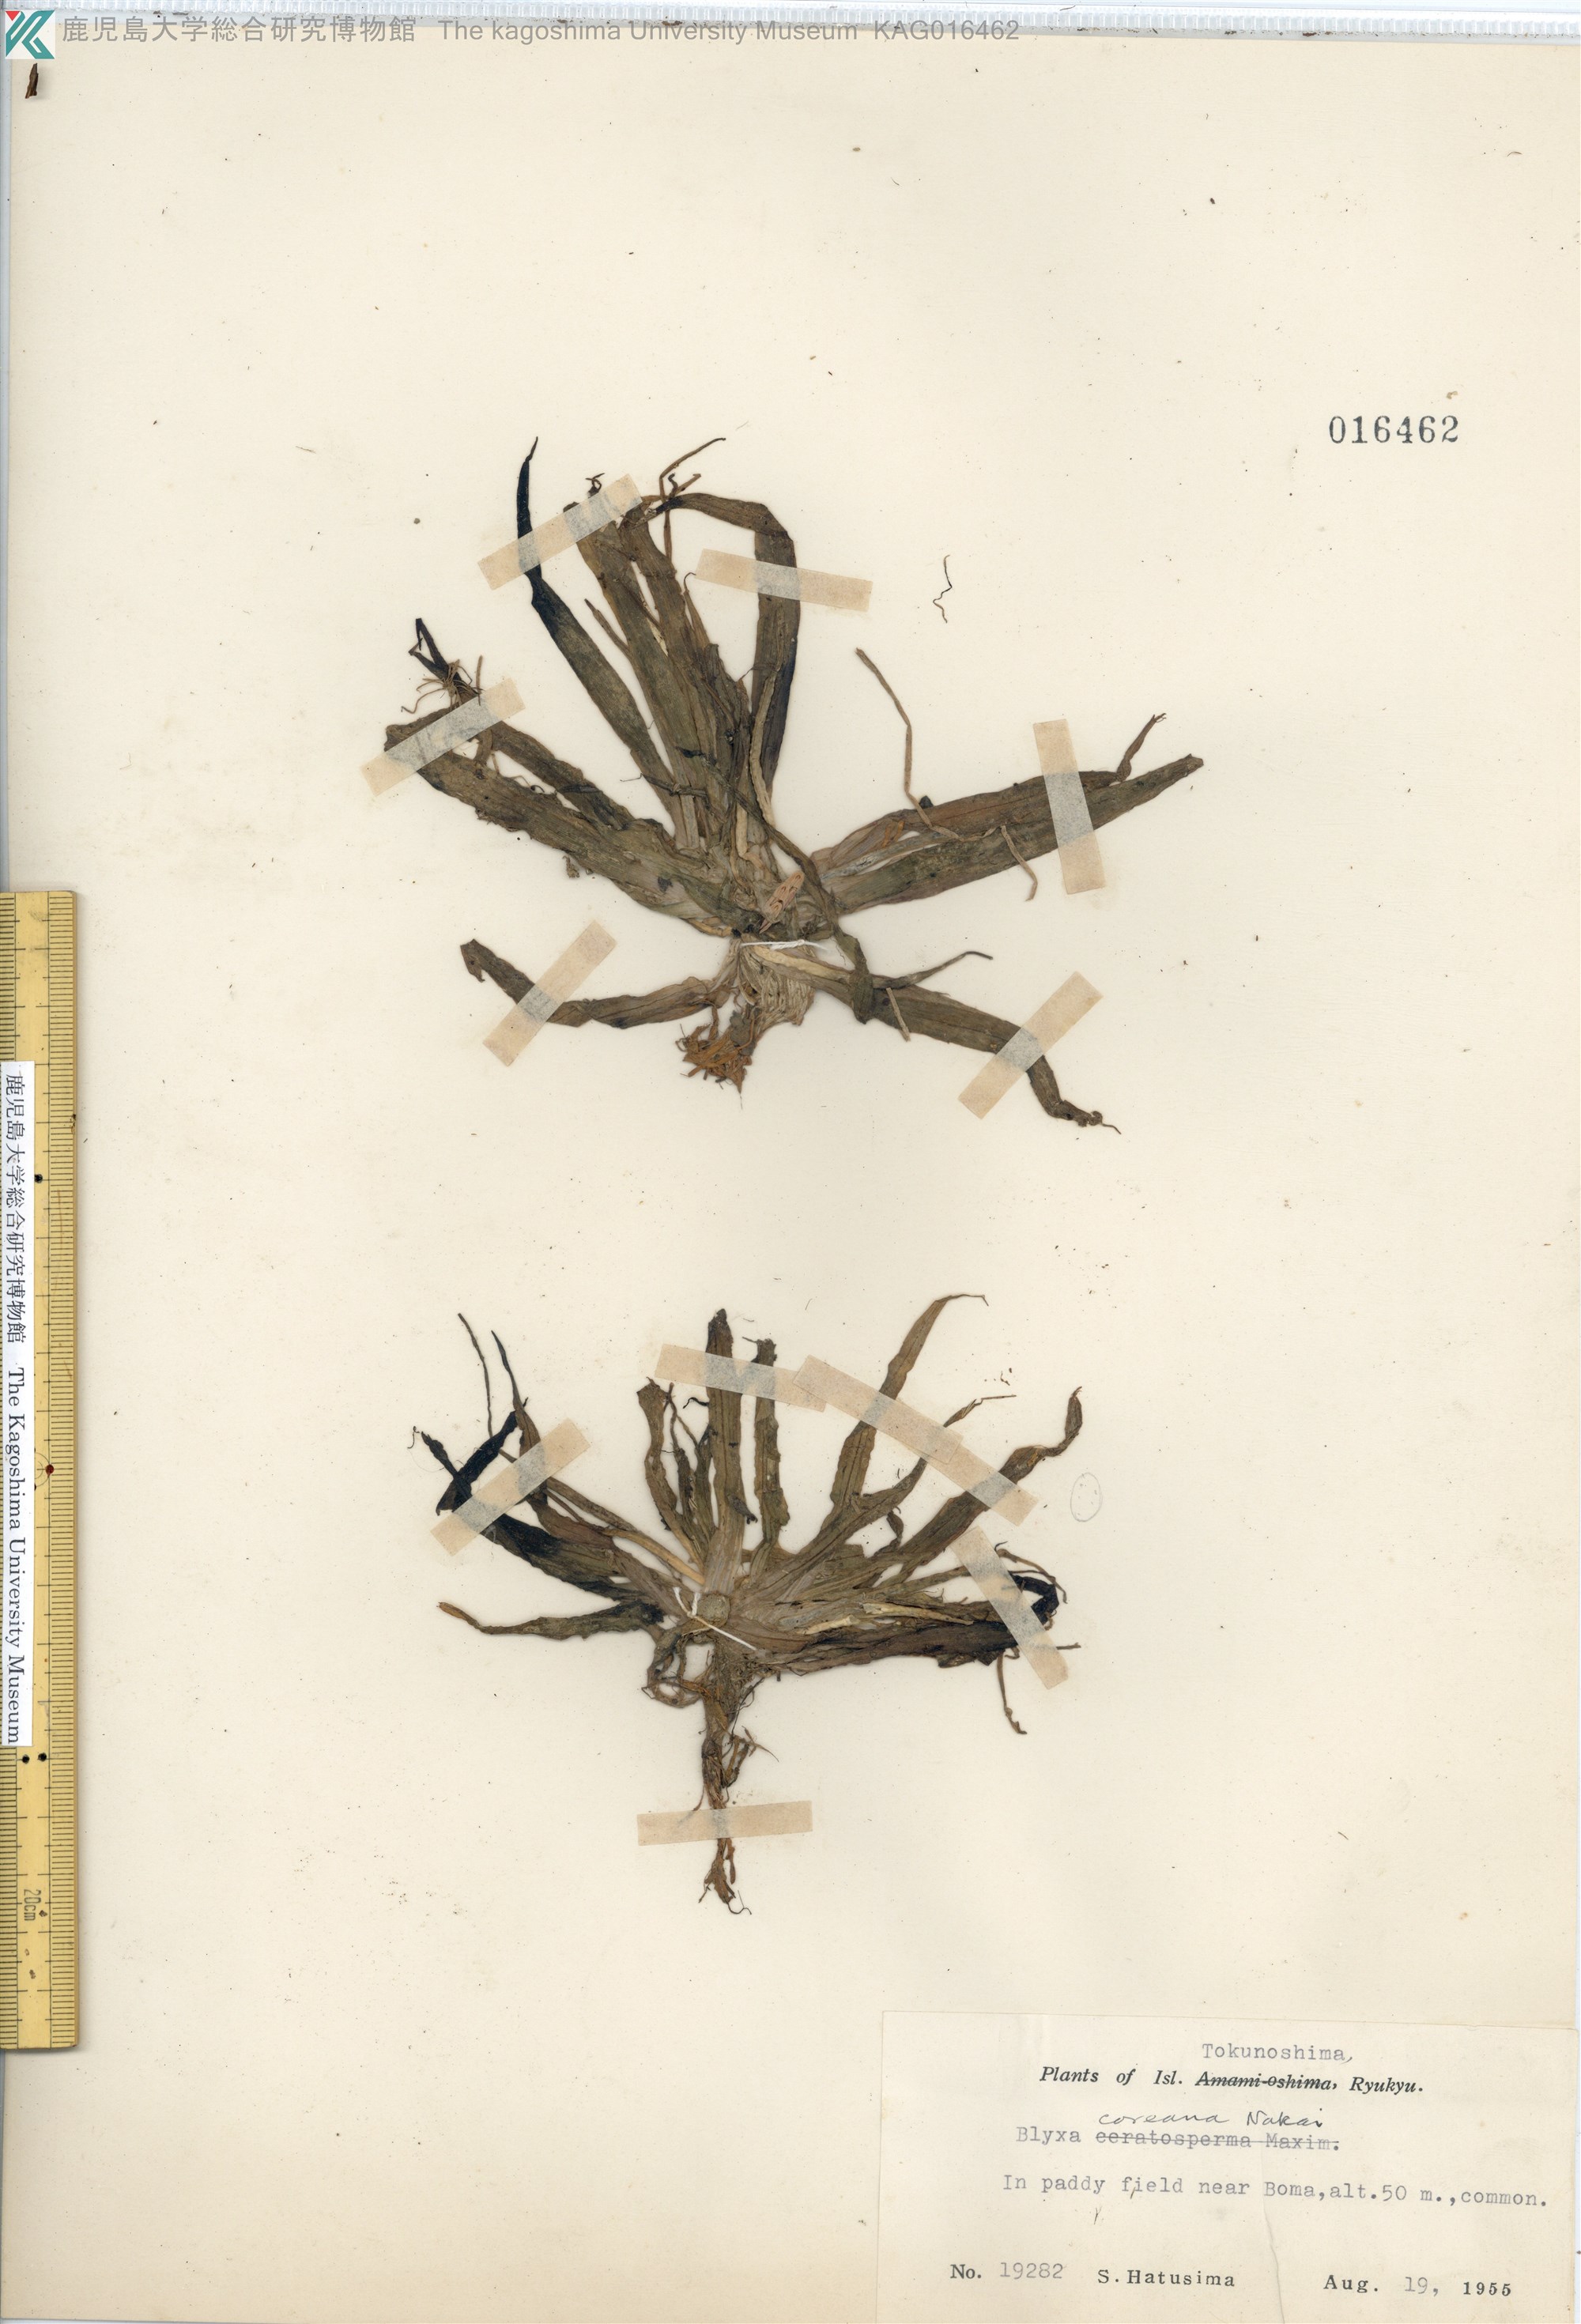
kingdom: Plantae
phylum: Tracheophyta
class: Liliopsida
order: Alismatales
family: Hydrocharitaceae
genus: Blyxa
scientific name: Blyxa aubertii
